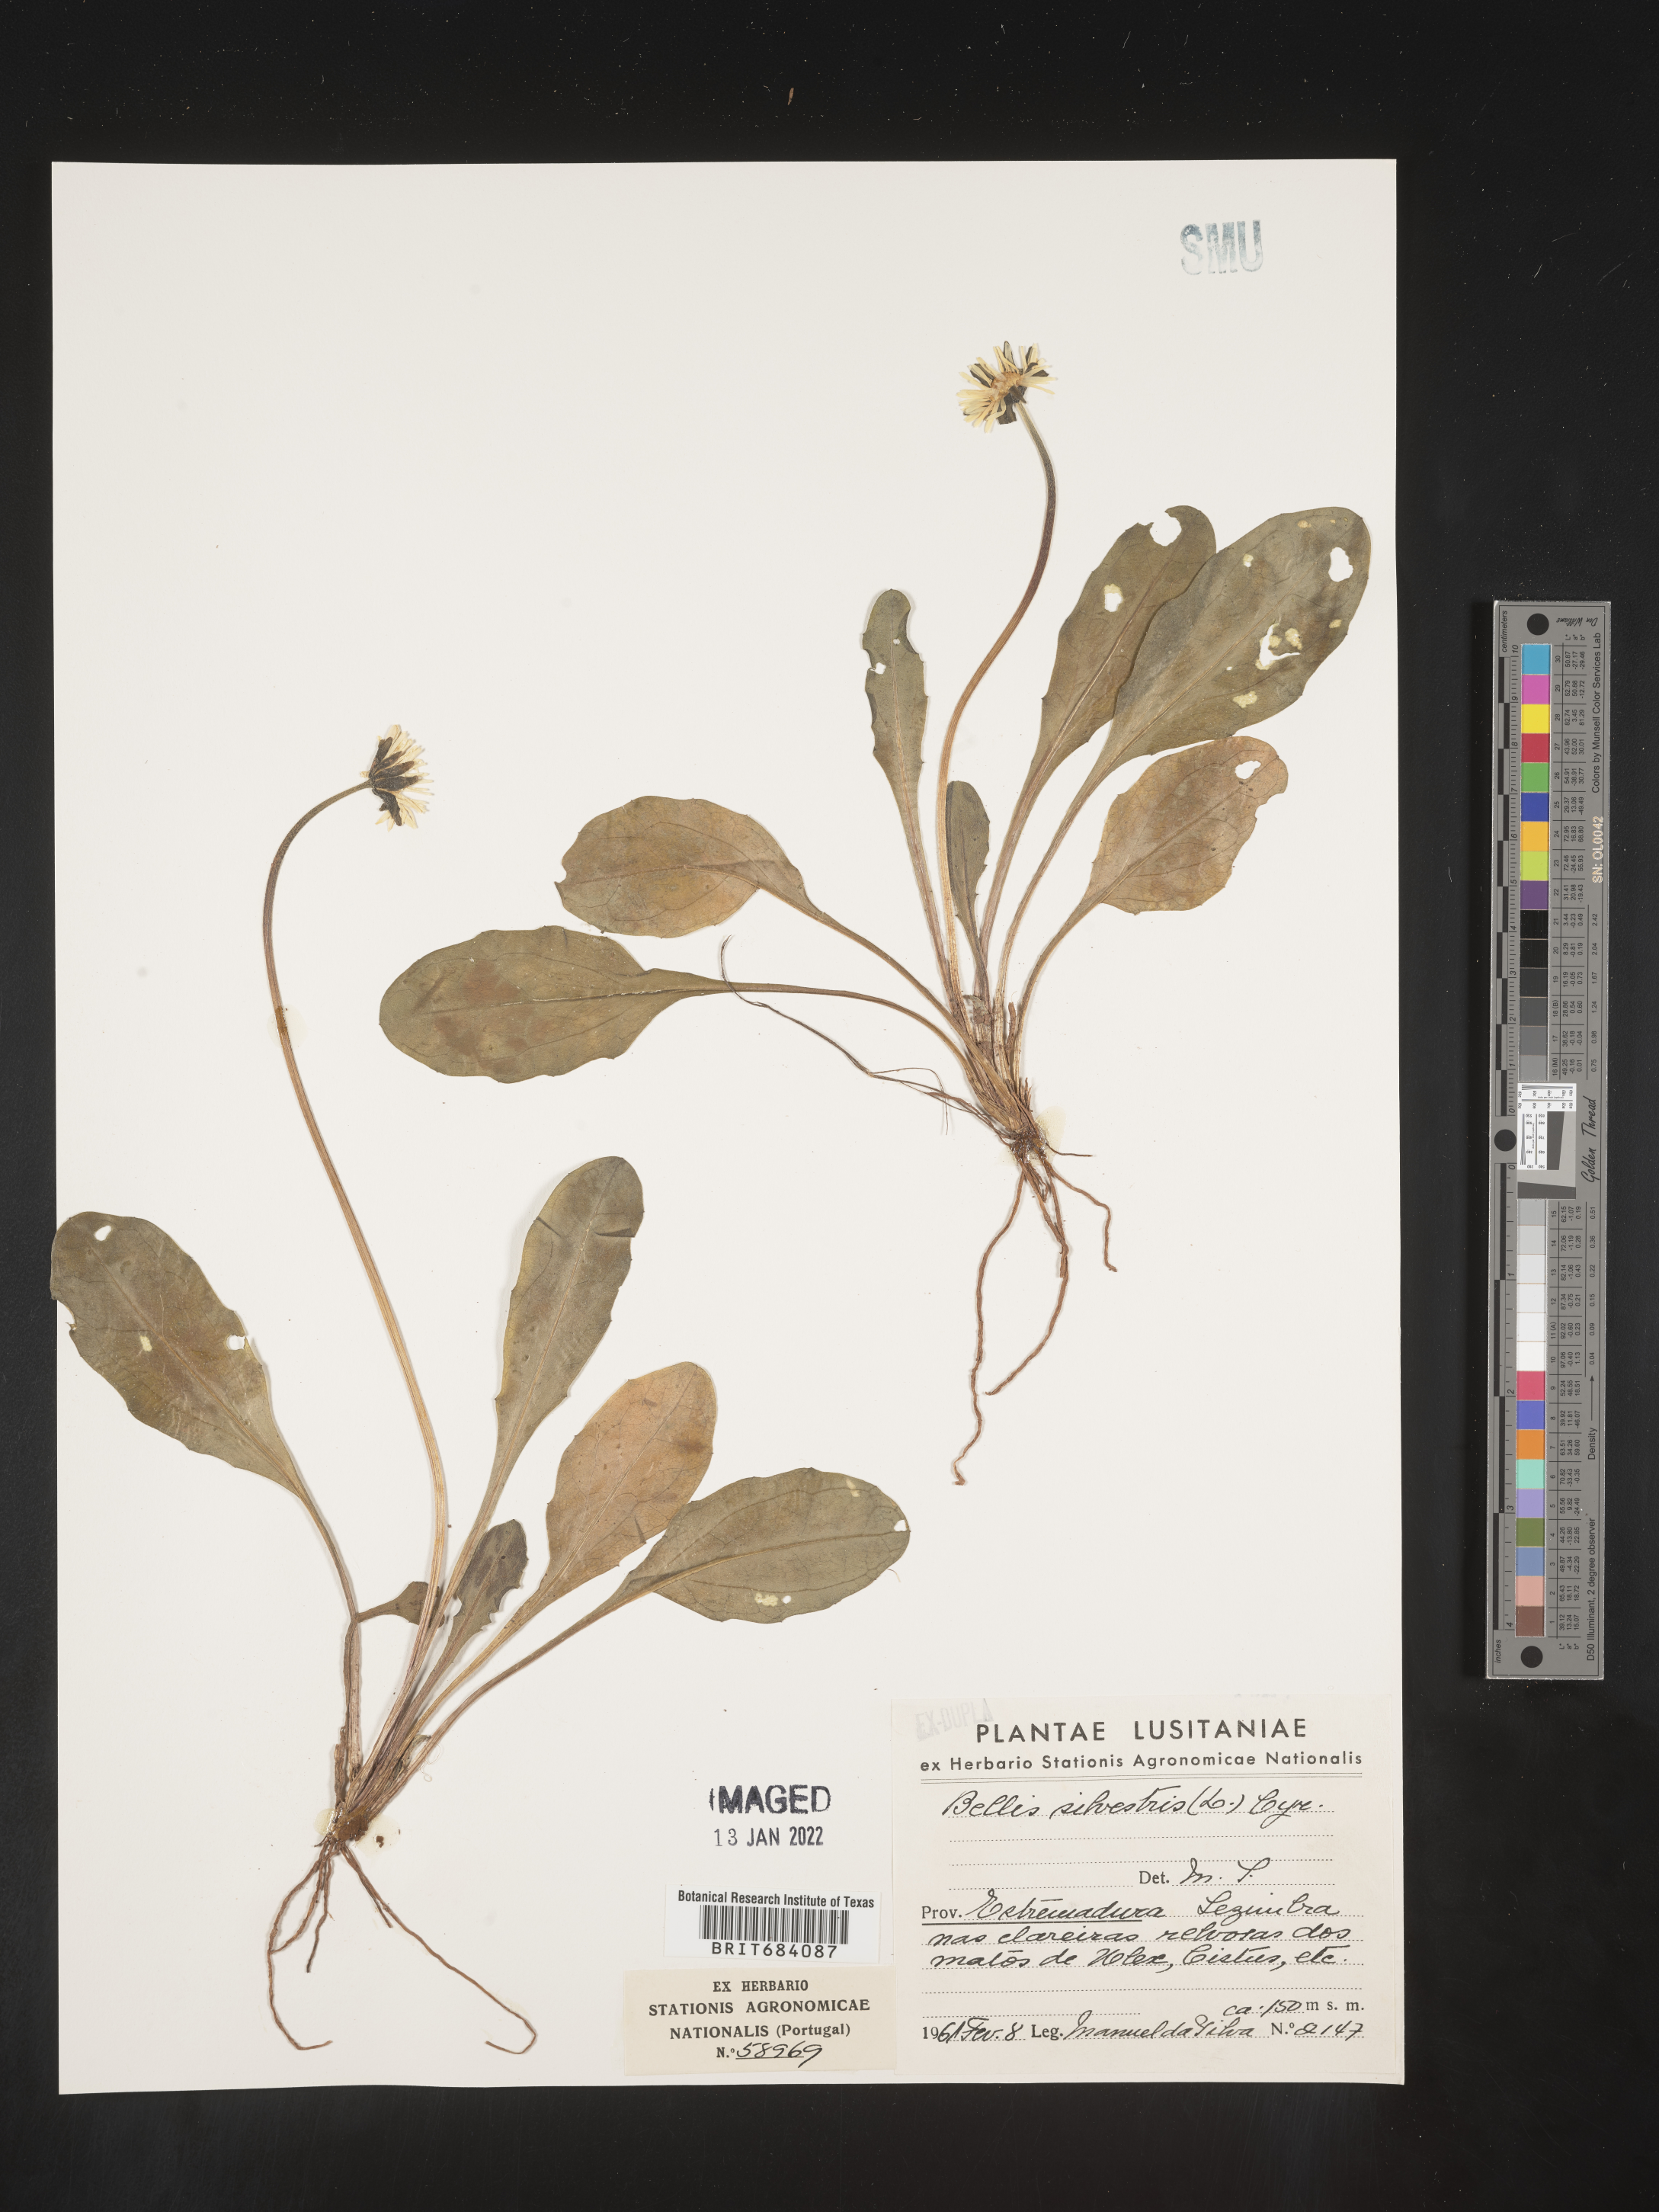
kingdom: Plantae
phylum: Tracheophyta
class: Magnoliopsida
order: Asterales
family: Asteraceae
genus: Bellis
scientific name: Bellis
